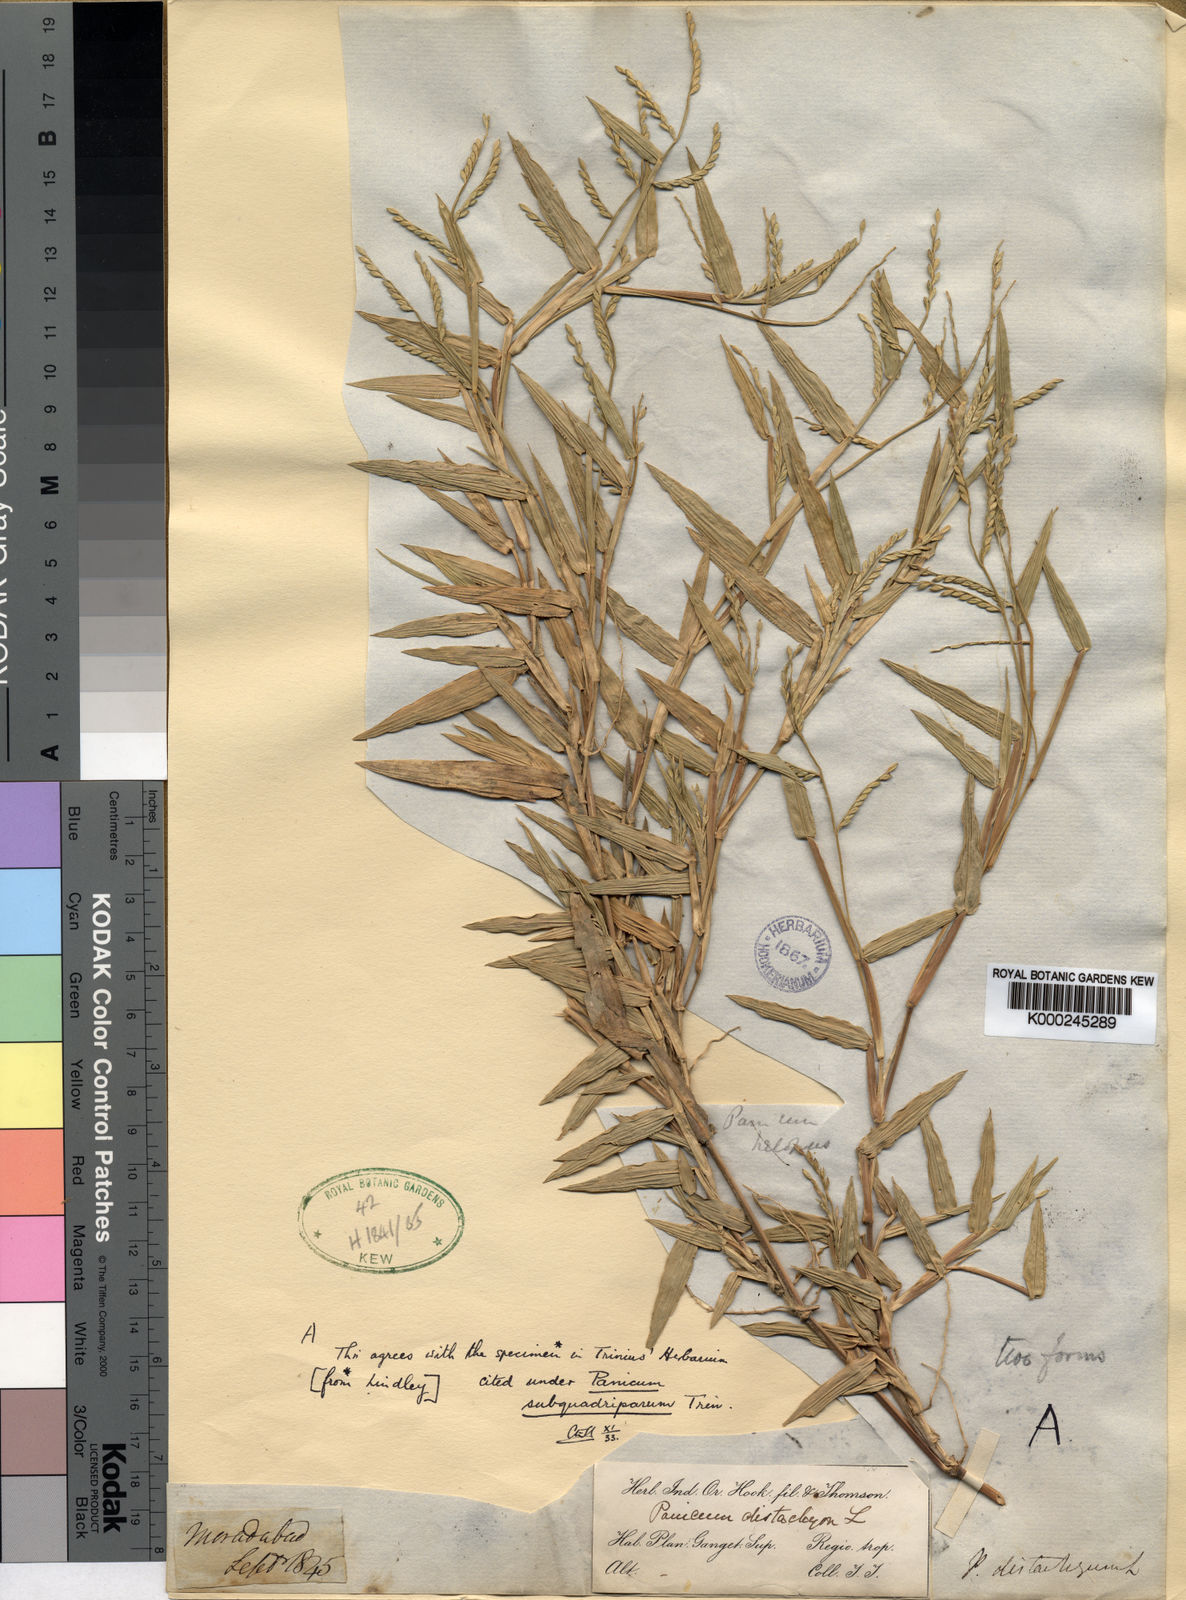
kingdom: Plantae
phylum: Tracheophyta
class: Liliopsida
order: Poales
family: Poaceae
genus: Urochloa
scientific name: Urochloa subquadripara
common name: Armgrass millet
